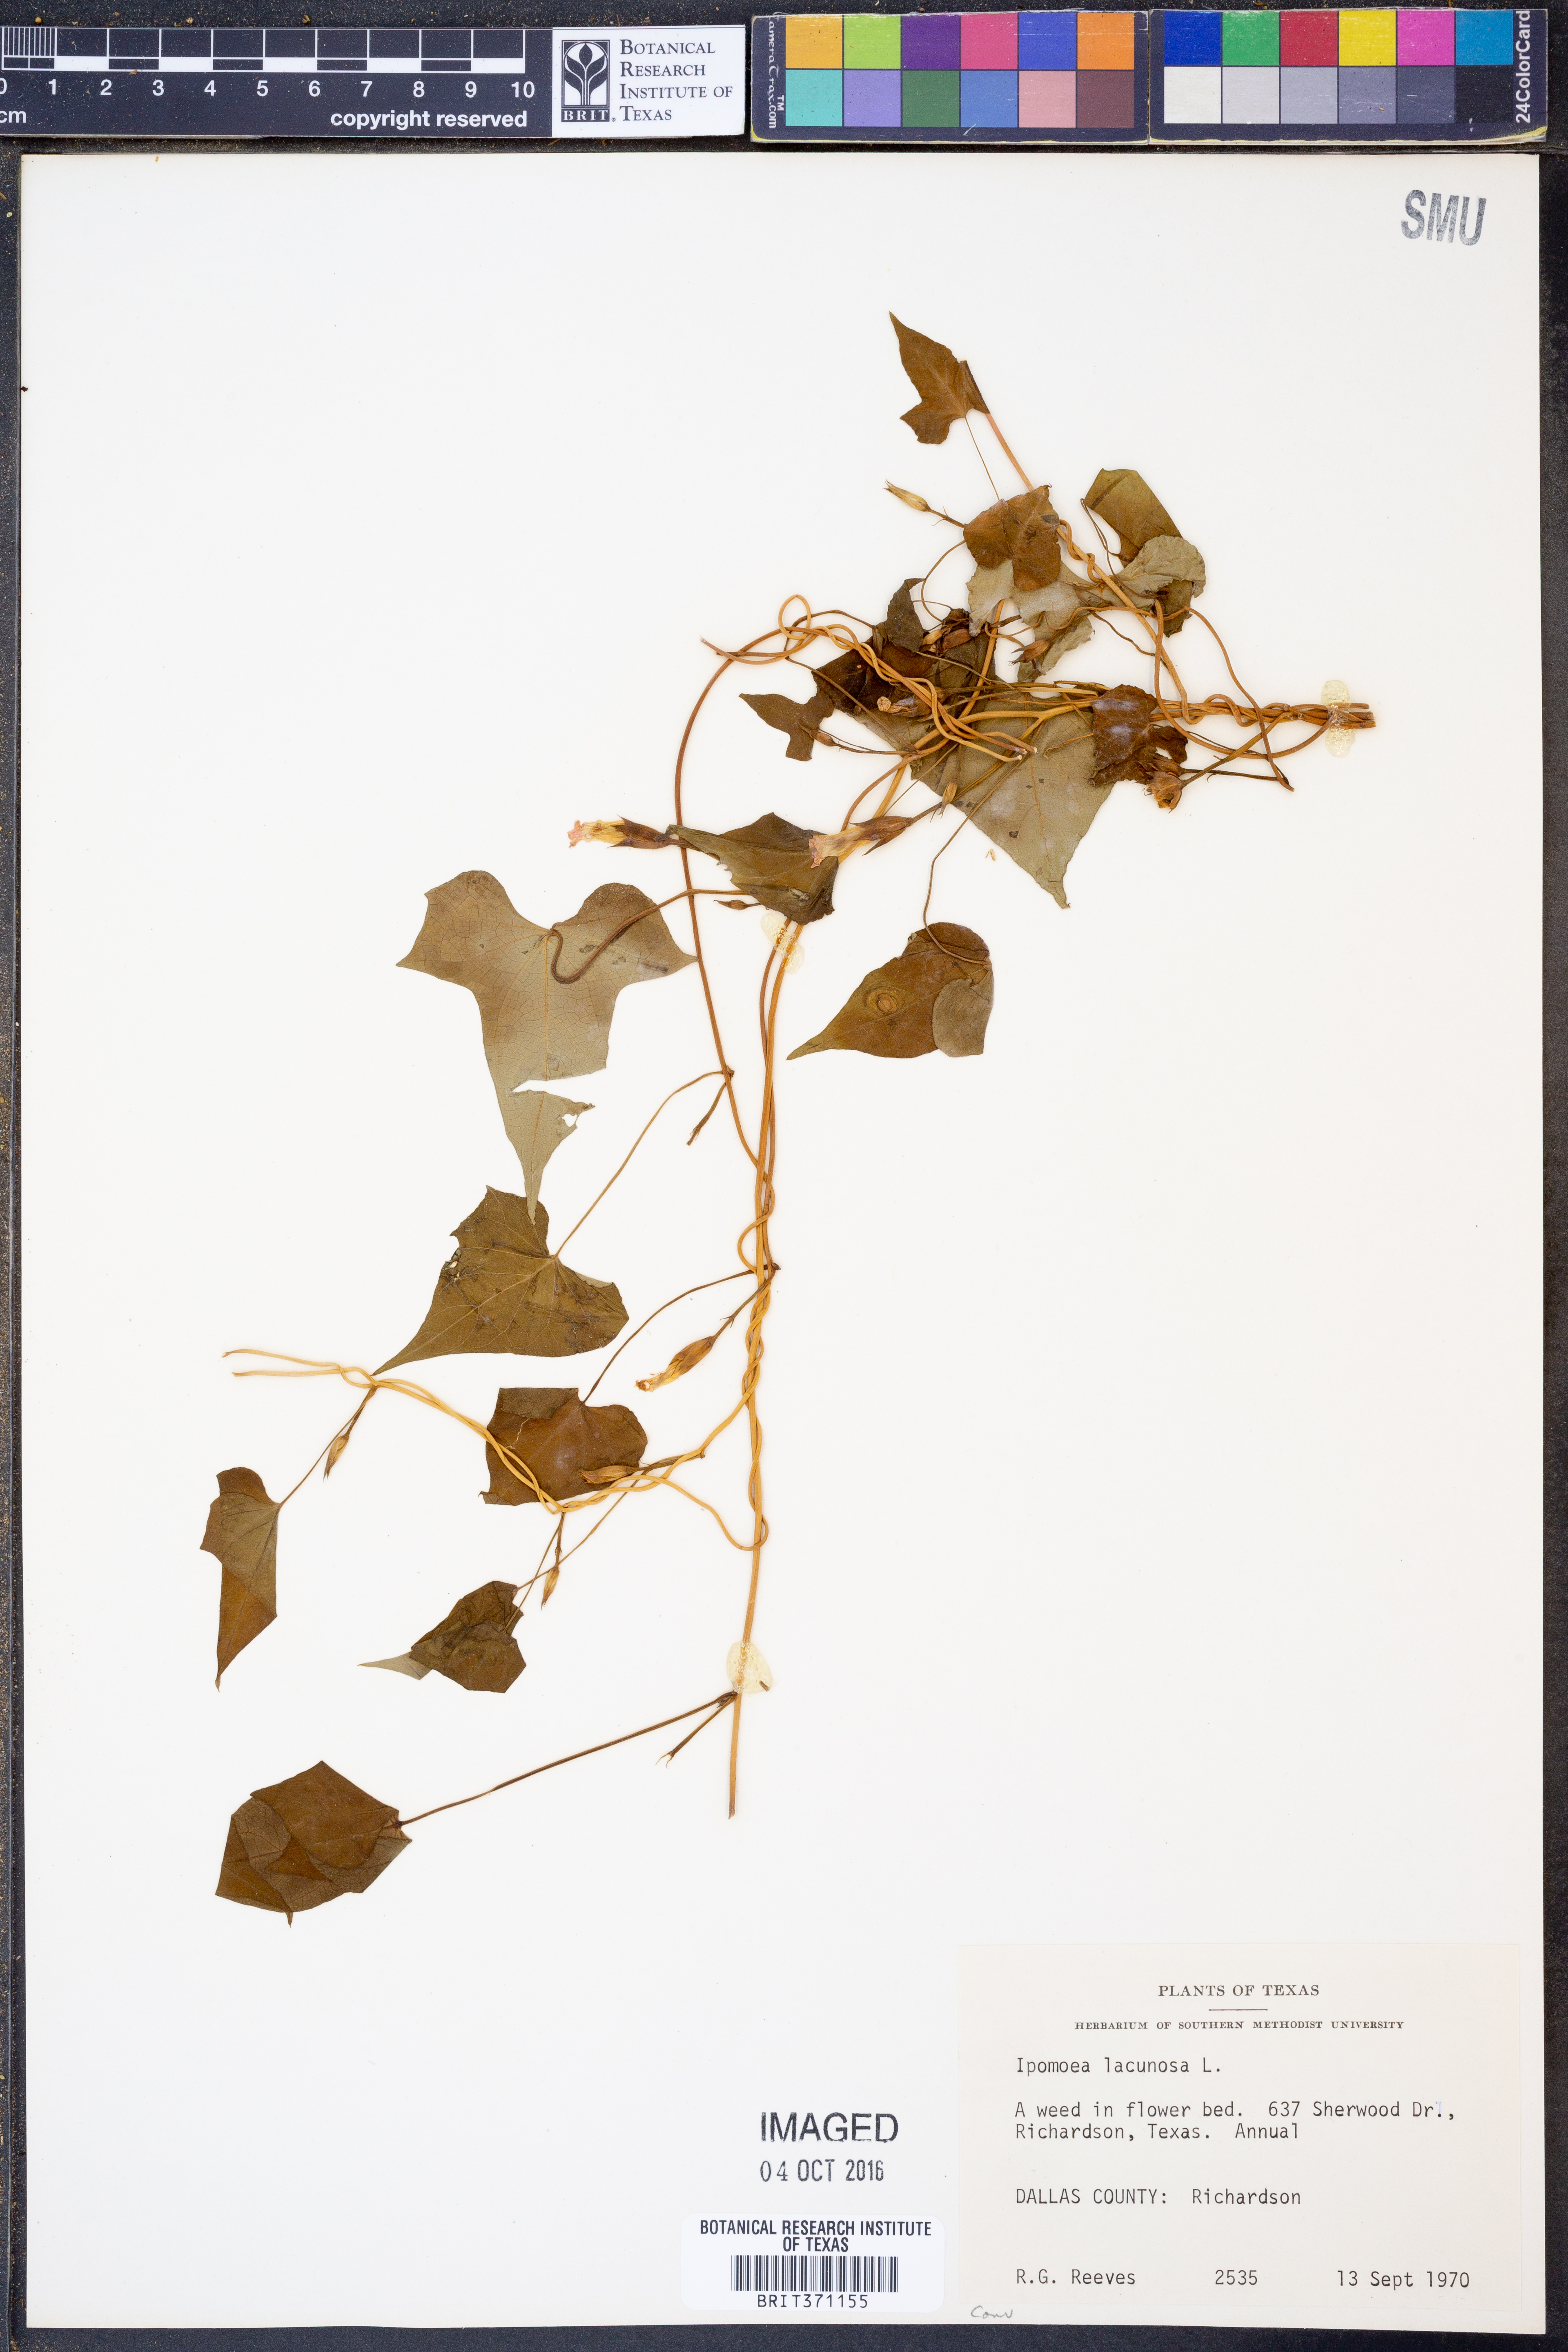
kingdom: Plantae
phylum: Tracheophyta
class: Magnoliopsida
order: Solanales
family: Convolvulaceae
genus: Ipomoea
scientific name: Ipomoea lacunosa
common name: White morning-glory
